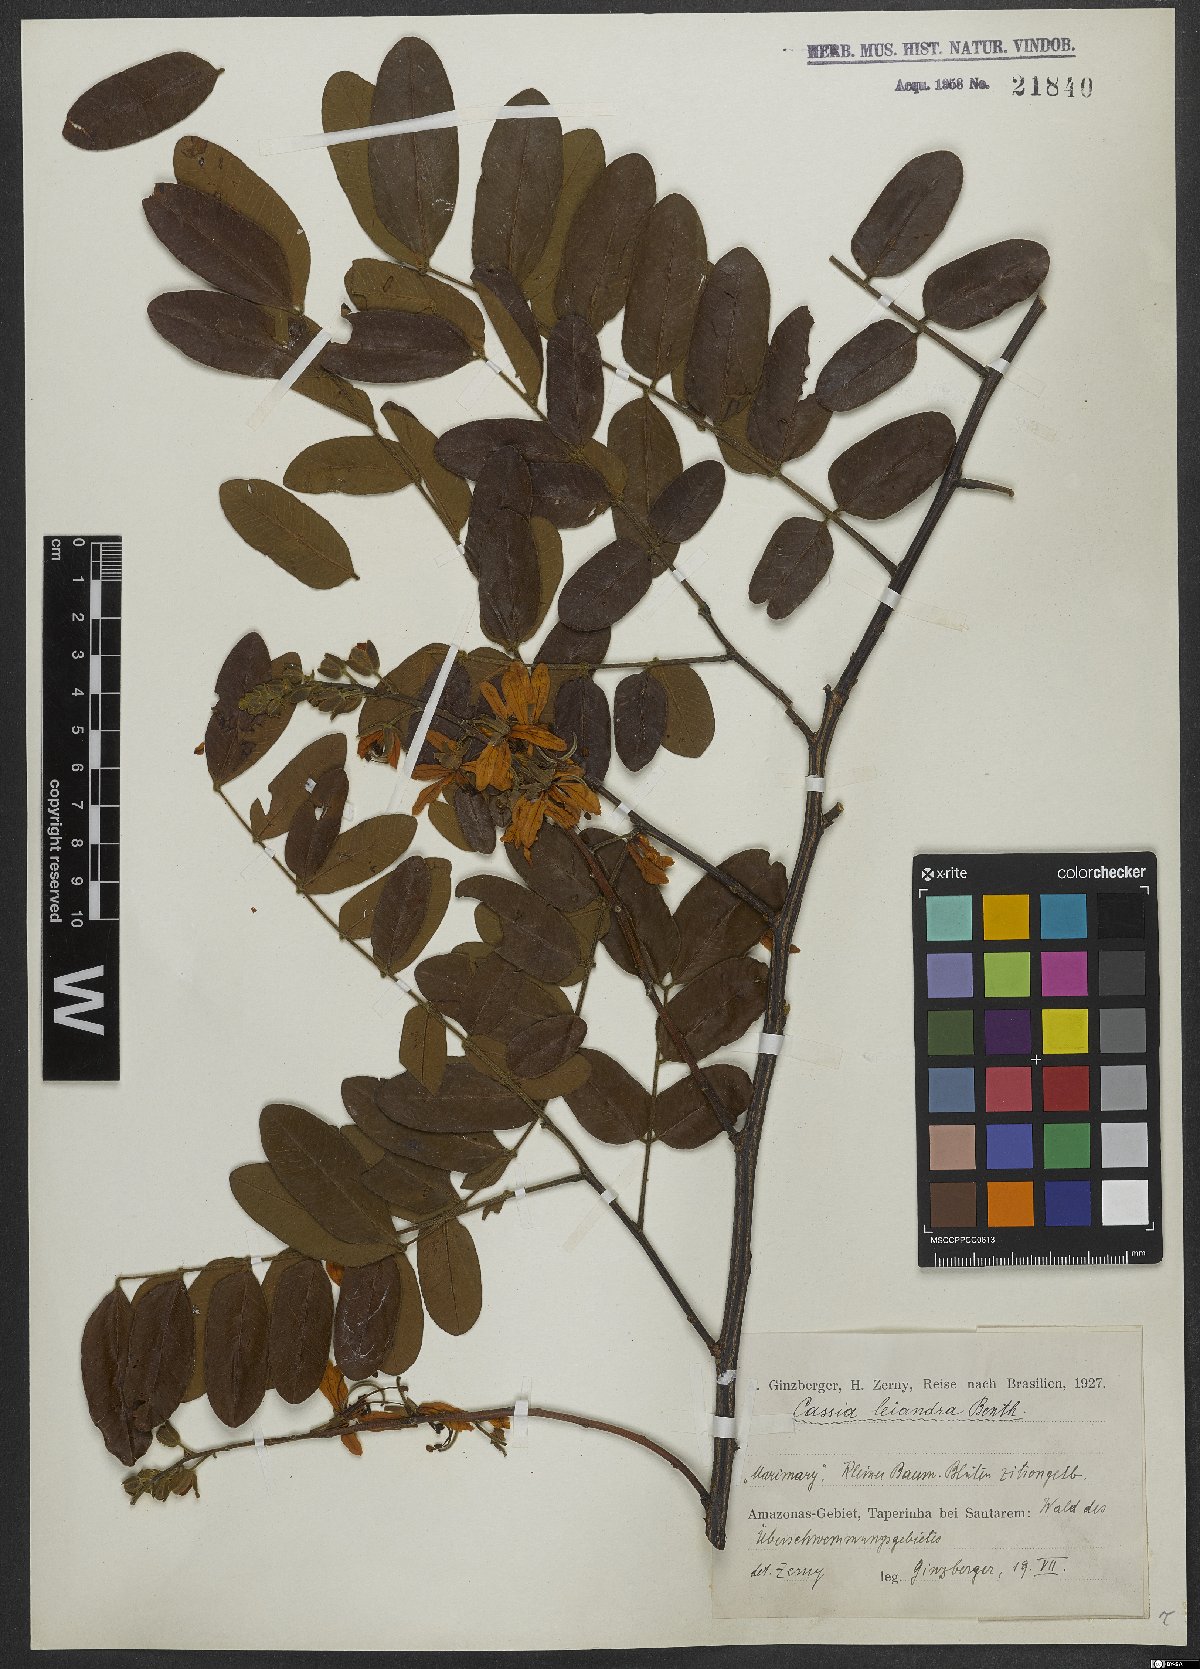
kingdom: Plantae
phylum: Tracheophyta
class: Magnoliopsida
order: Fabales
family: Fabaceae
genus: Cassia
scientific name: Cassia leiandra
